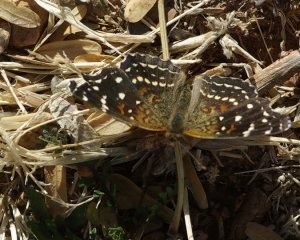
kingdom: Animalia
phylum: Arthropoda
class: Insecta
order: Lepidoptera
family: Nymphalidae
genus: Anthanassa
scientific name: Anthanassa texana
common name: Texan Crescent
